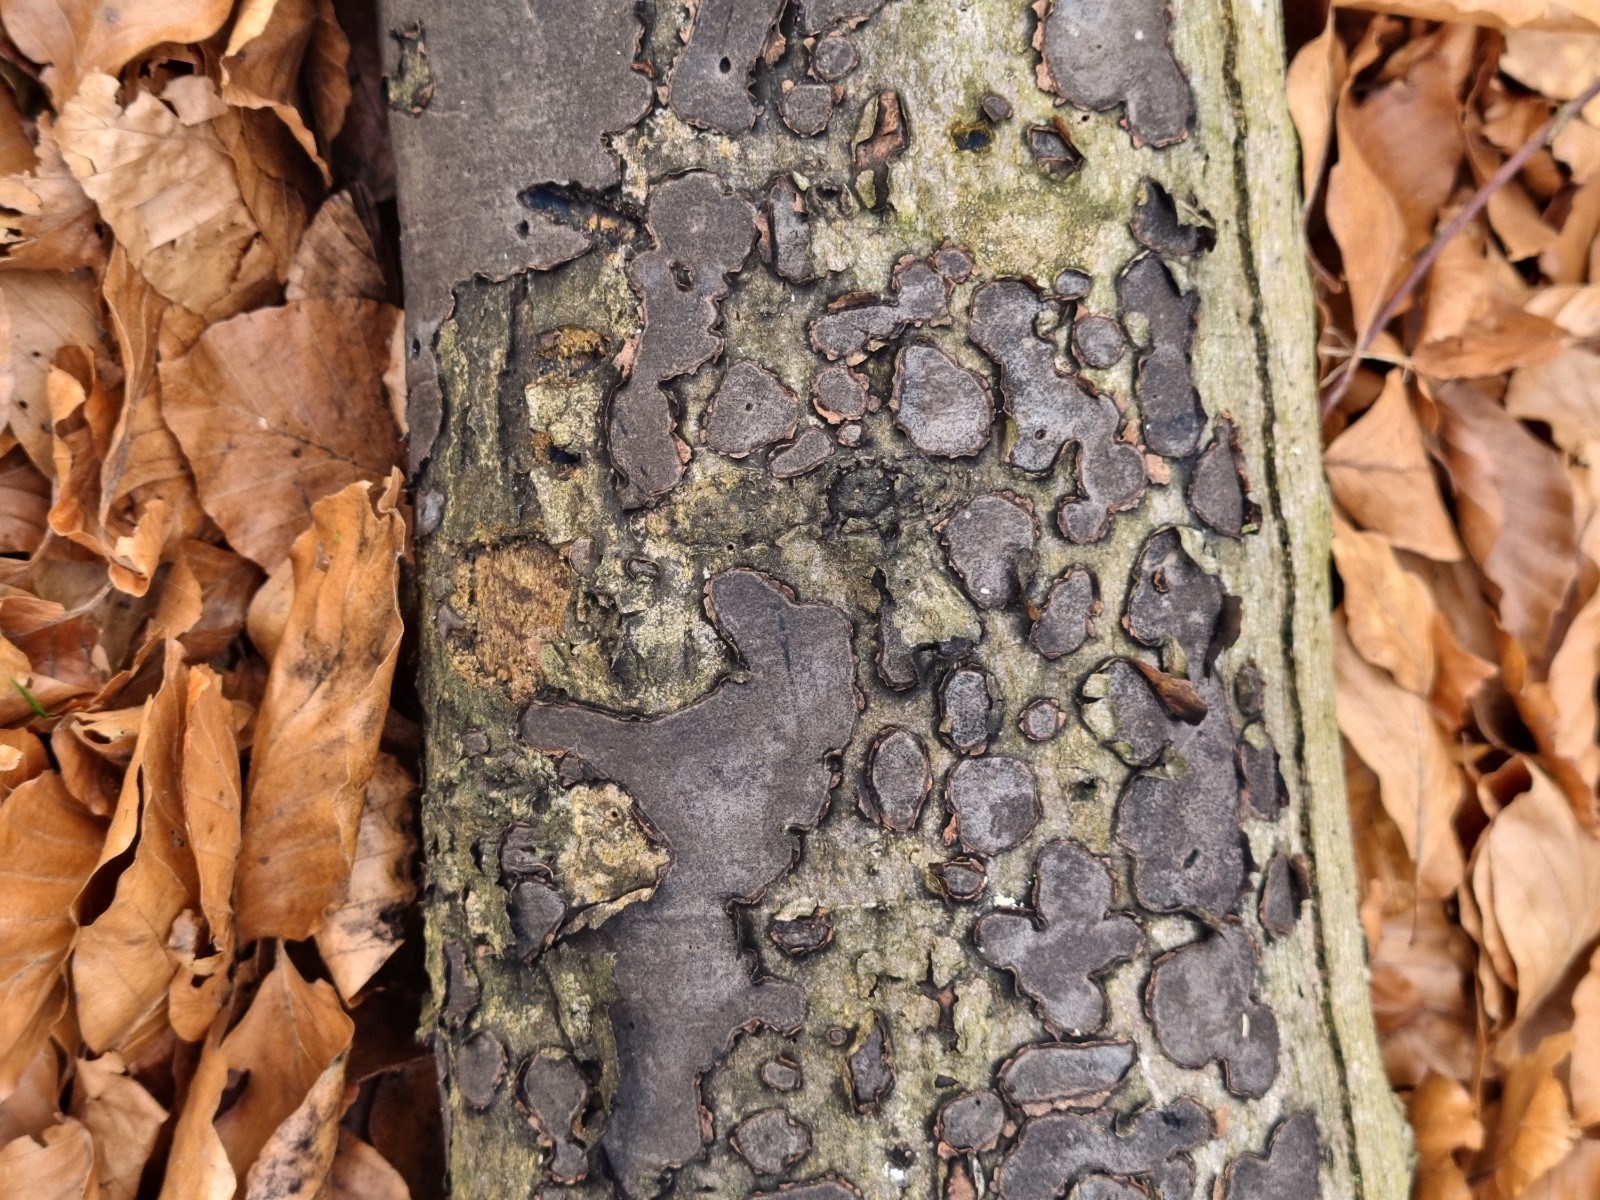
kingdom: Fungi
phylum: Ascomycota
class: Sordariomycetes
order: Xylariales
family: Graphostromataceae
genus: Biscogniauxia
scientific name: Biscogniauxia nummularia
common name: bøge-kulskive
